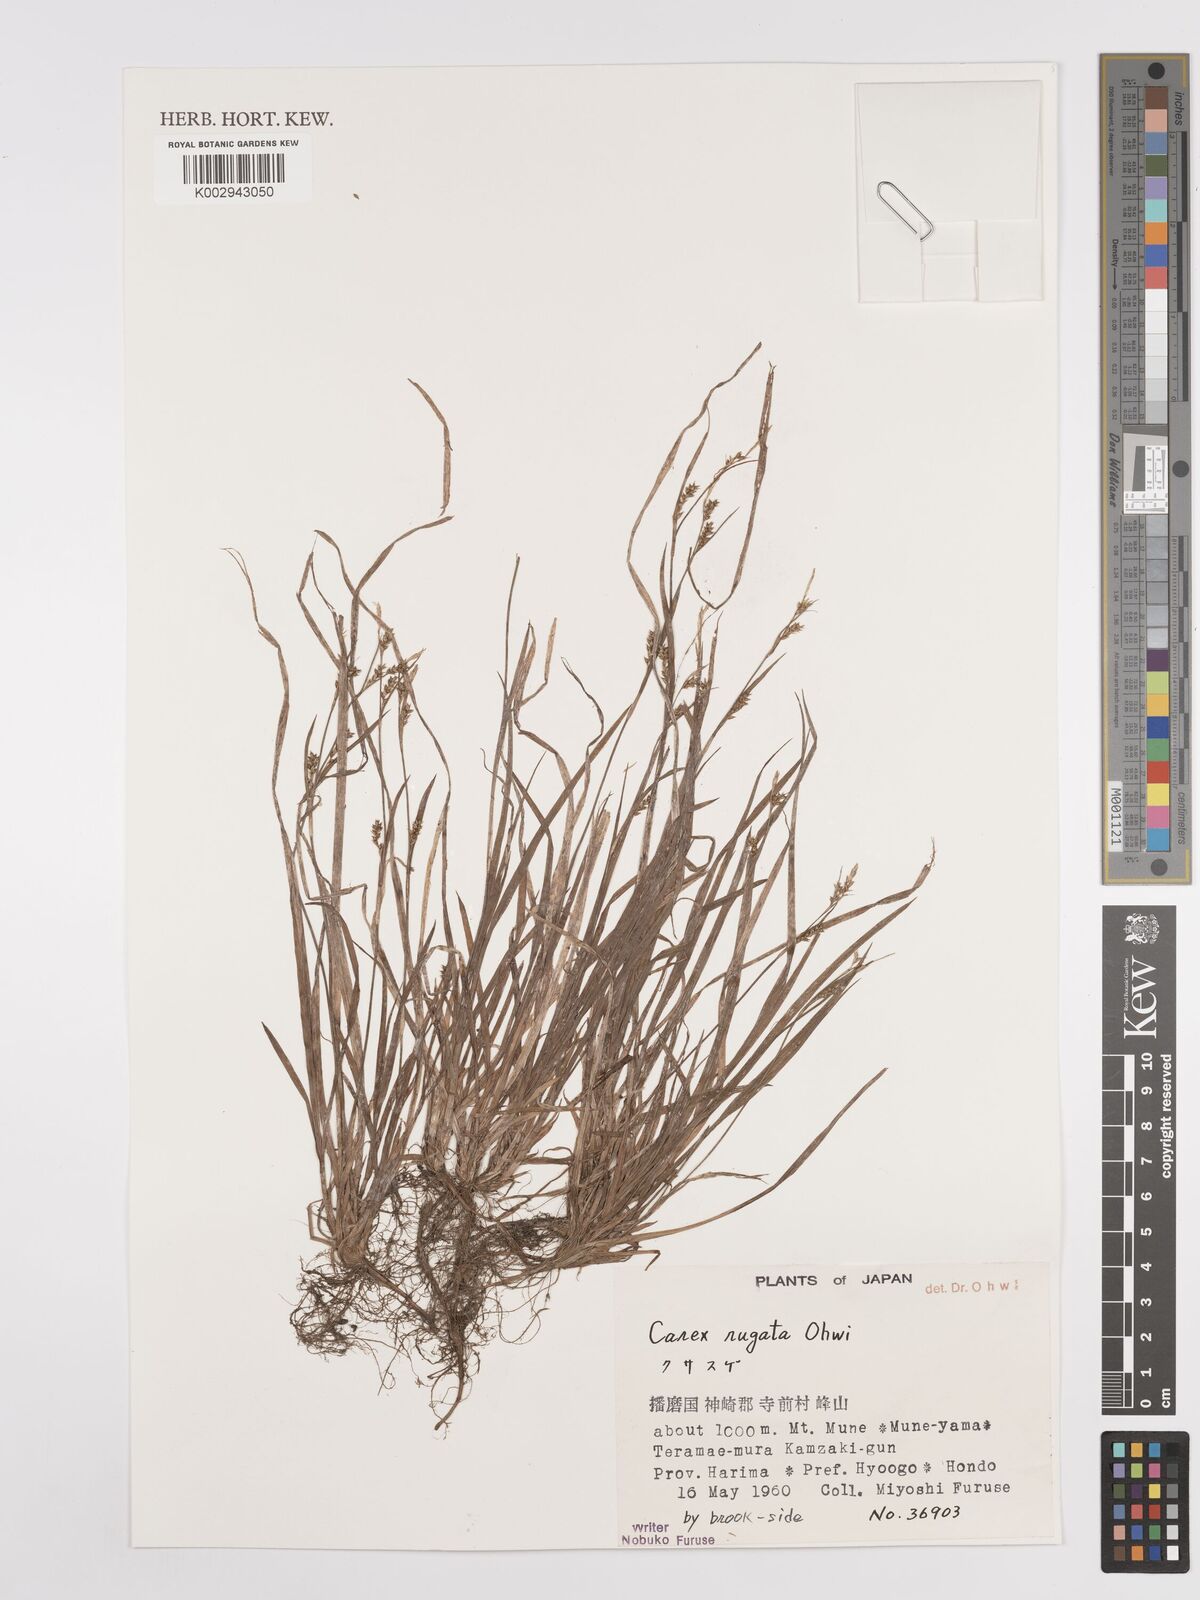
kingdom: Plantae
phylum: Tracheophyta
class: Liliopsida
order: Poales
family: Cyperaceae
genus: Carex
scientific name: Carex rugata
